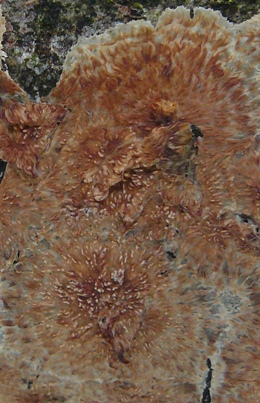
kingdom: Fungi
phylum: Basidiomycota
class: Agaricomycetes
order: Polyporales
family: Meruliaceae
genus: Phlebia
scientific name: Phlebia radiata
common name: stråle-åresvamp
